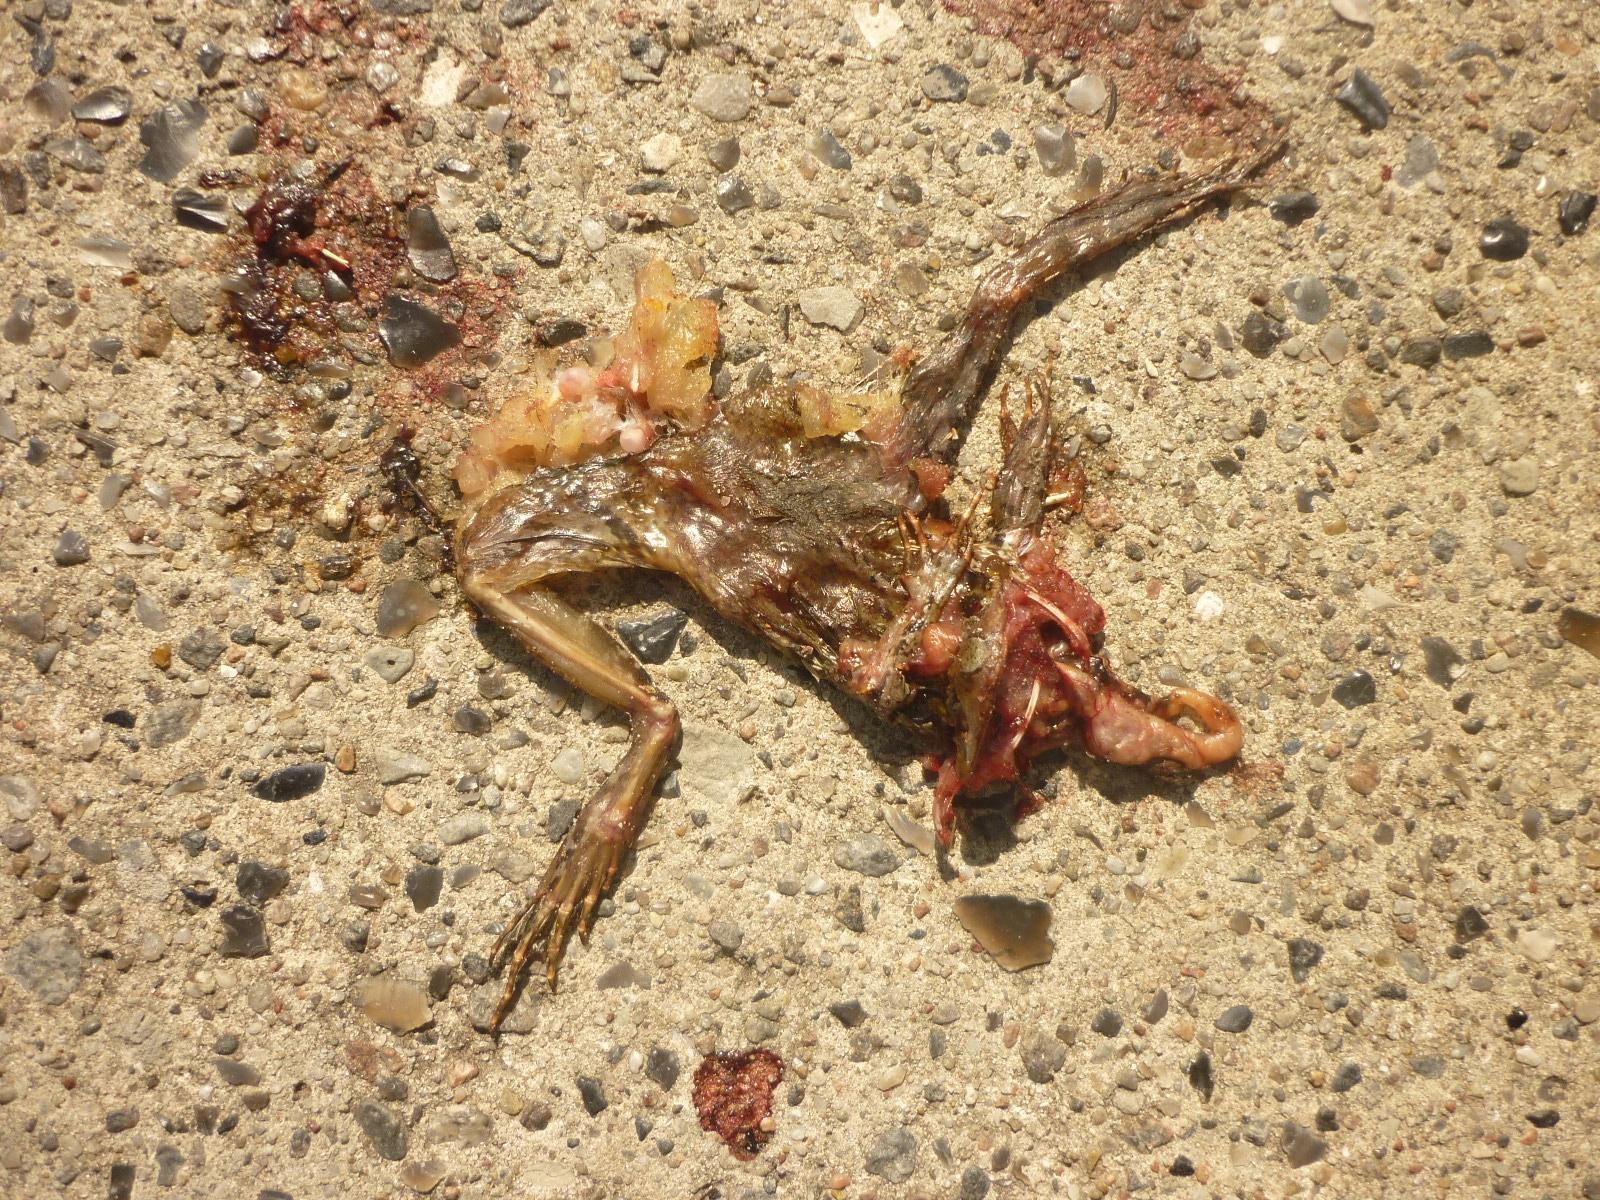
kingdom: Animalia
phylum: Chordata
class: Amphibia
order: Anura
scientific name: Anura
